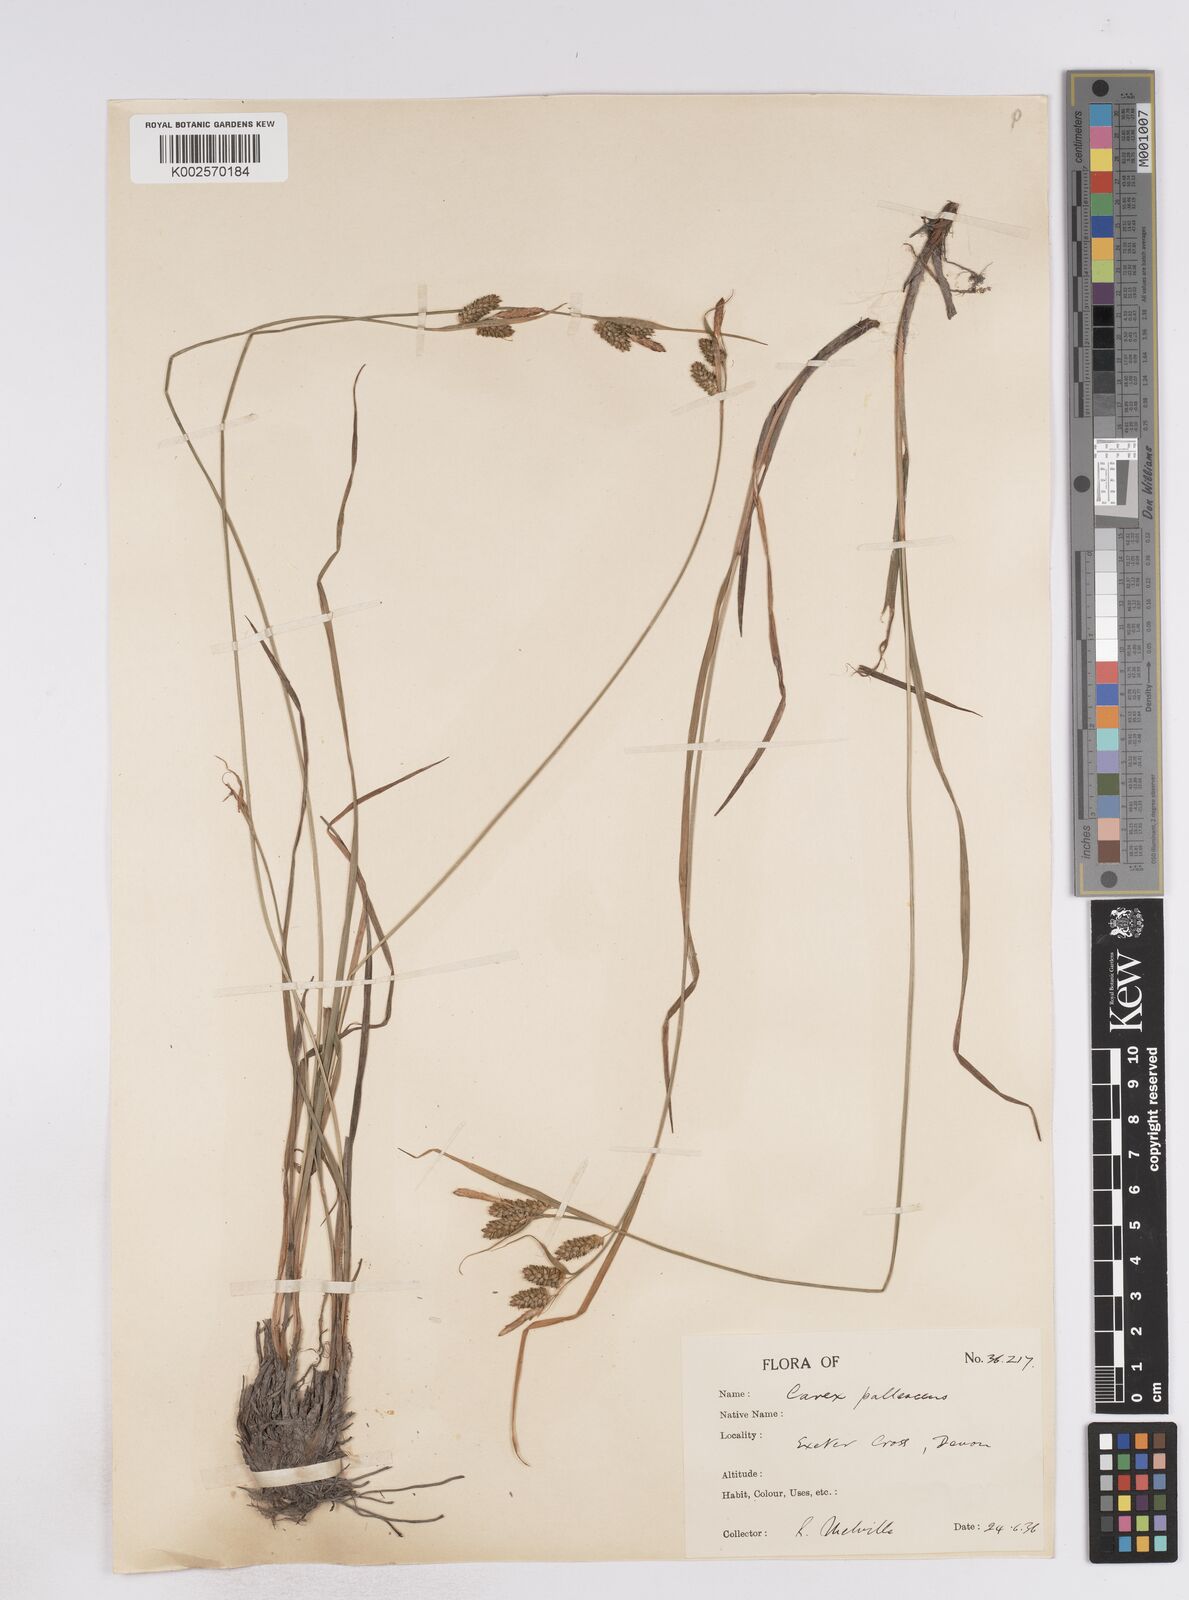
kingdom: Plantae
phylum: Tracheophyta
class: Liliopsida
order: Poales
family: Cyperaceae
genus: Carex
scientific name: Carex pallescens
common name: Pale sedge
